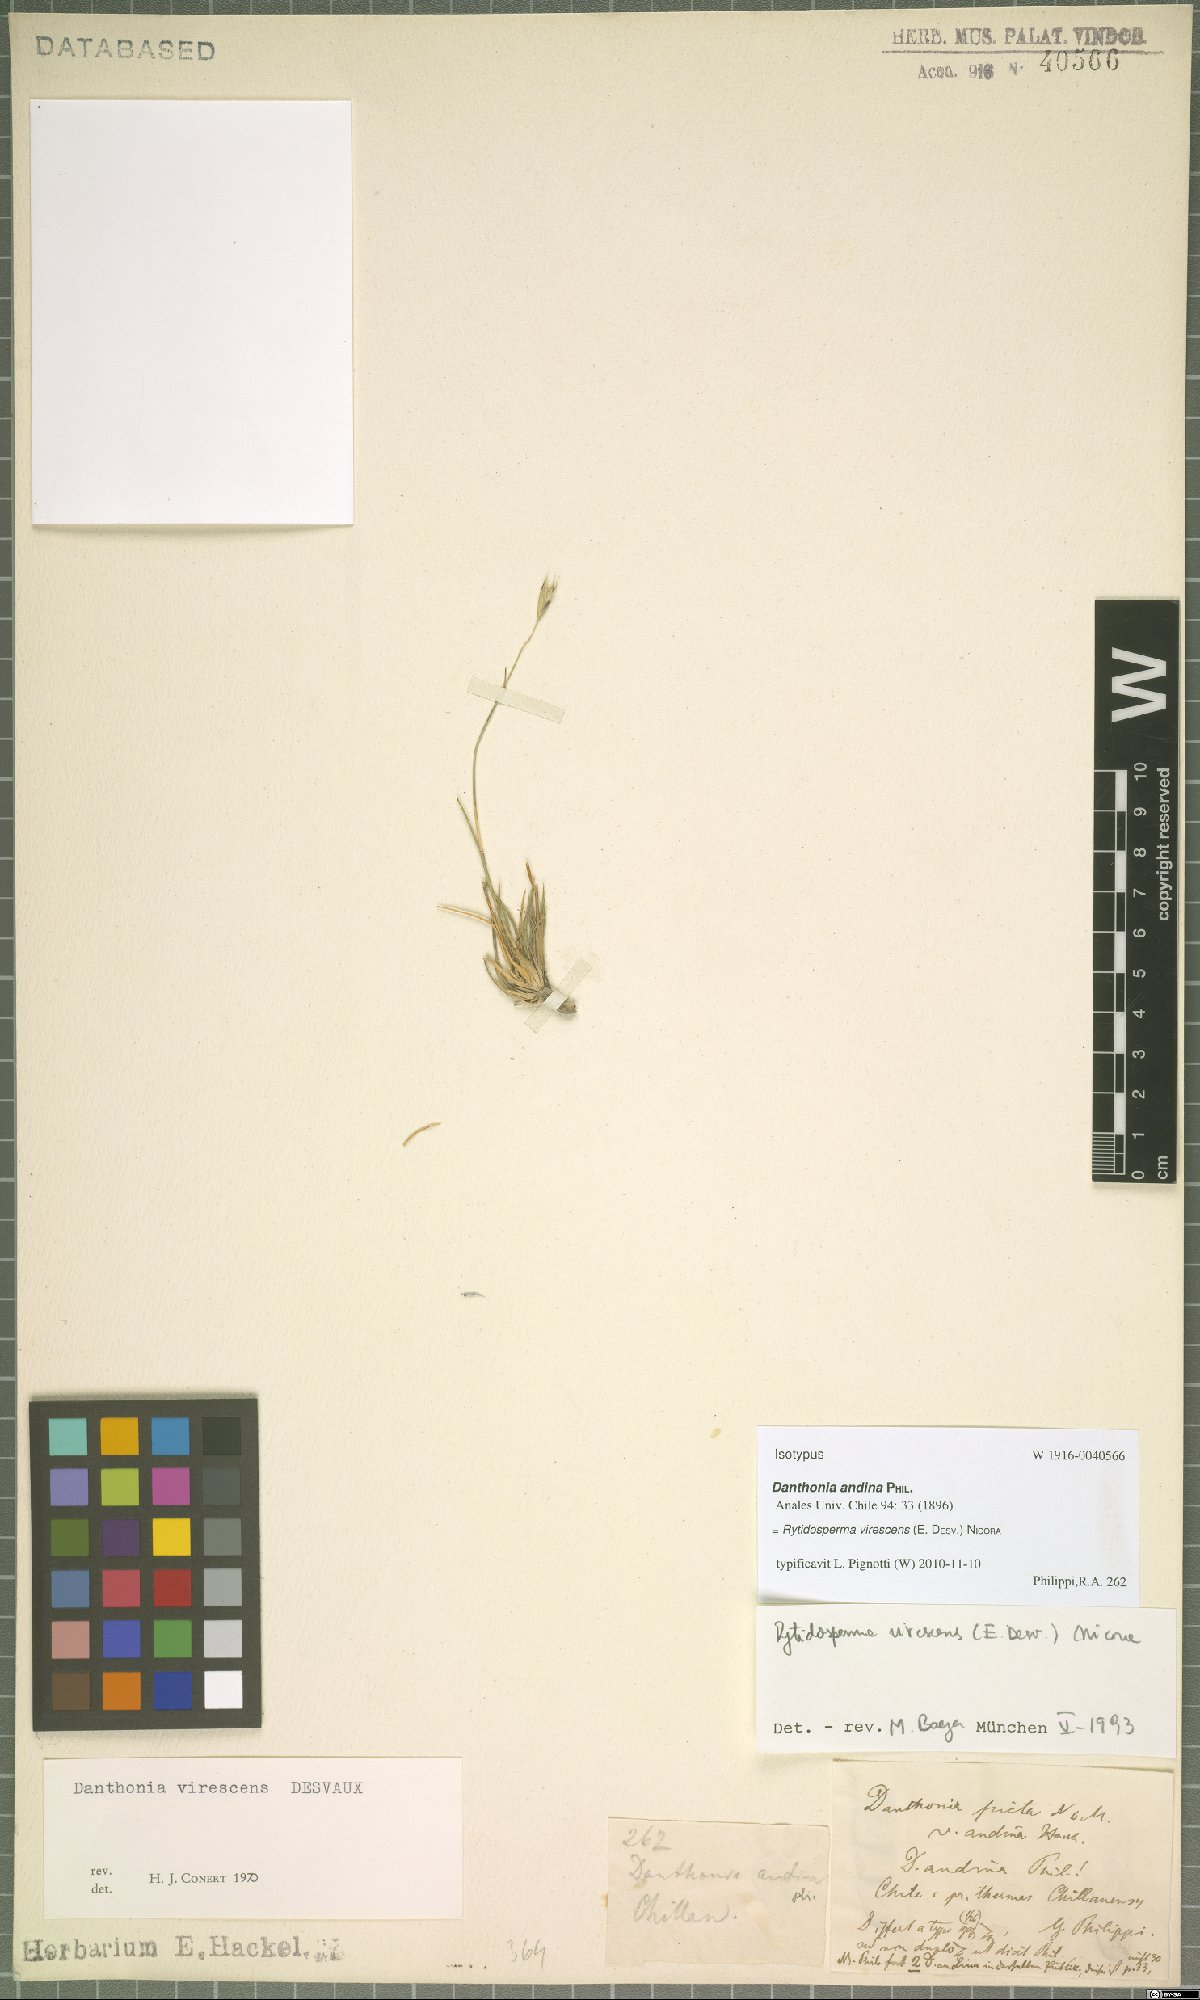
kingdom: Plantae
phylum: Tracheophyta
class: Liliopsida
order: Poales
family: Poaceae
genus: Rytidosperma
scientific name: Rytidosperma virescens
